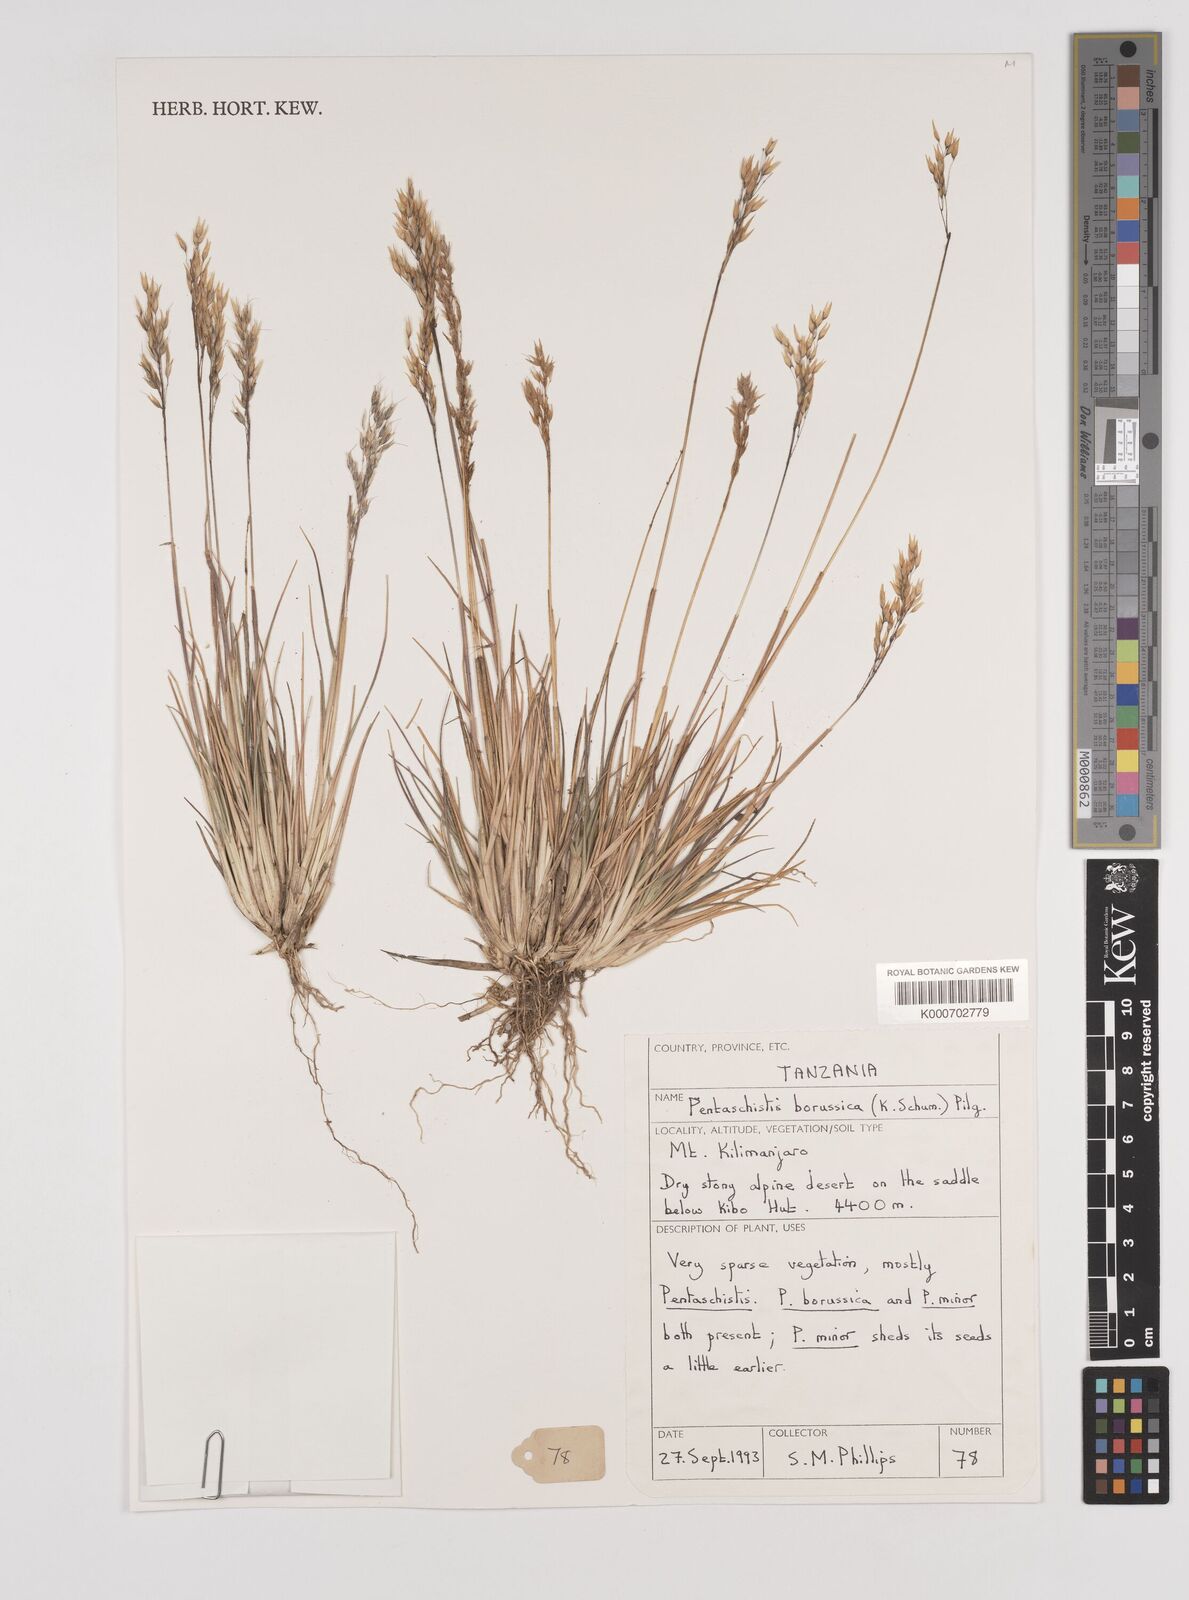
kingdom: Plantae
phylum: Tracheophyta
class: Liliopsida
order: Poales
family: Poaceae
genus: Pentameris
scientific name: Pentameris borussica
